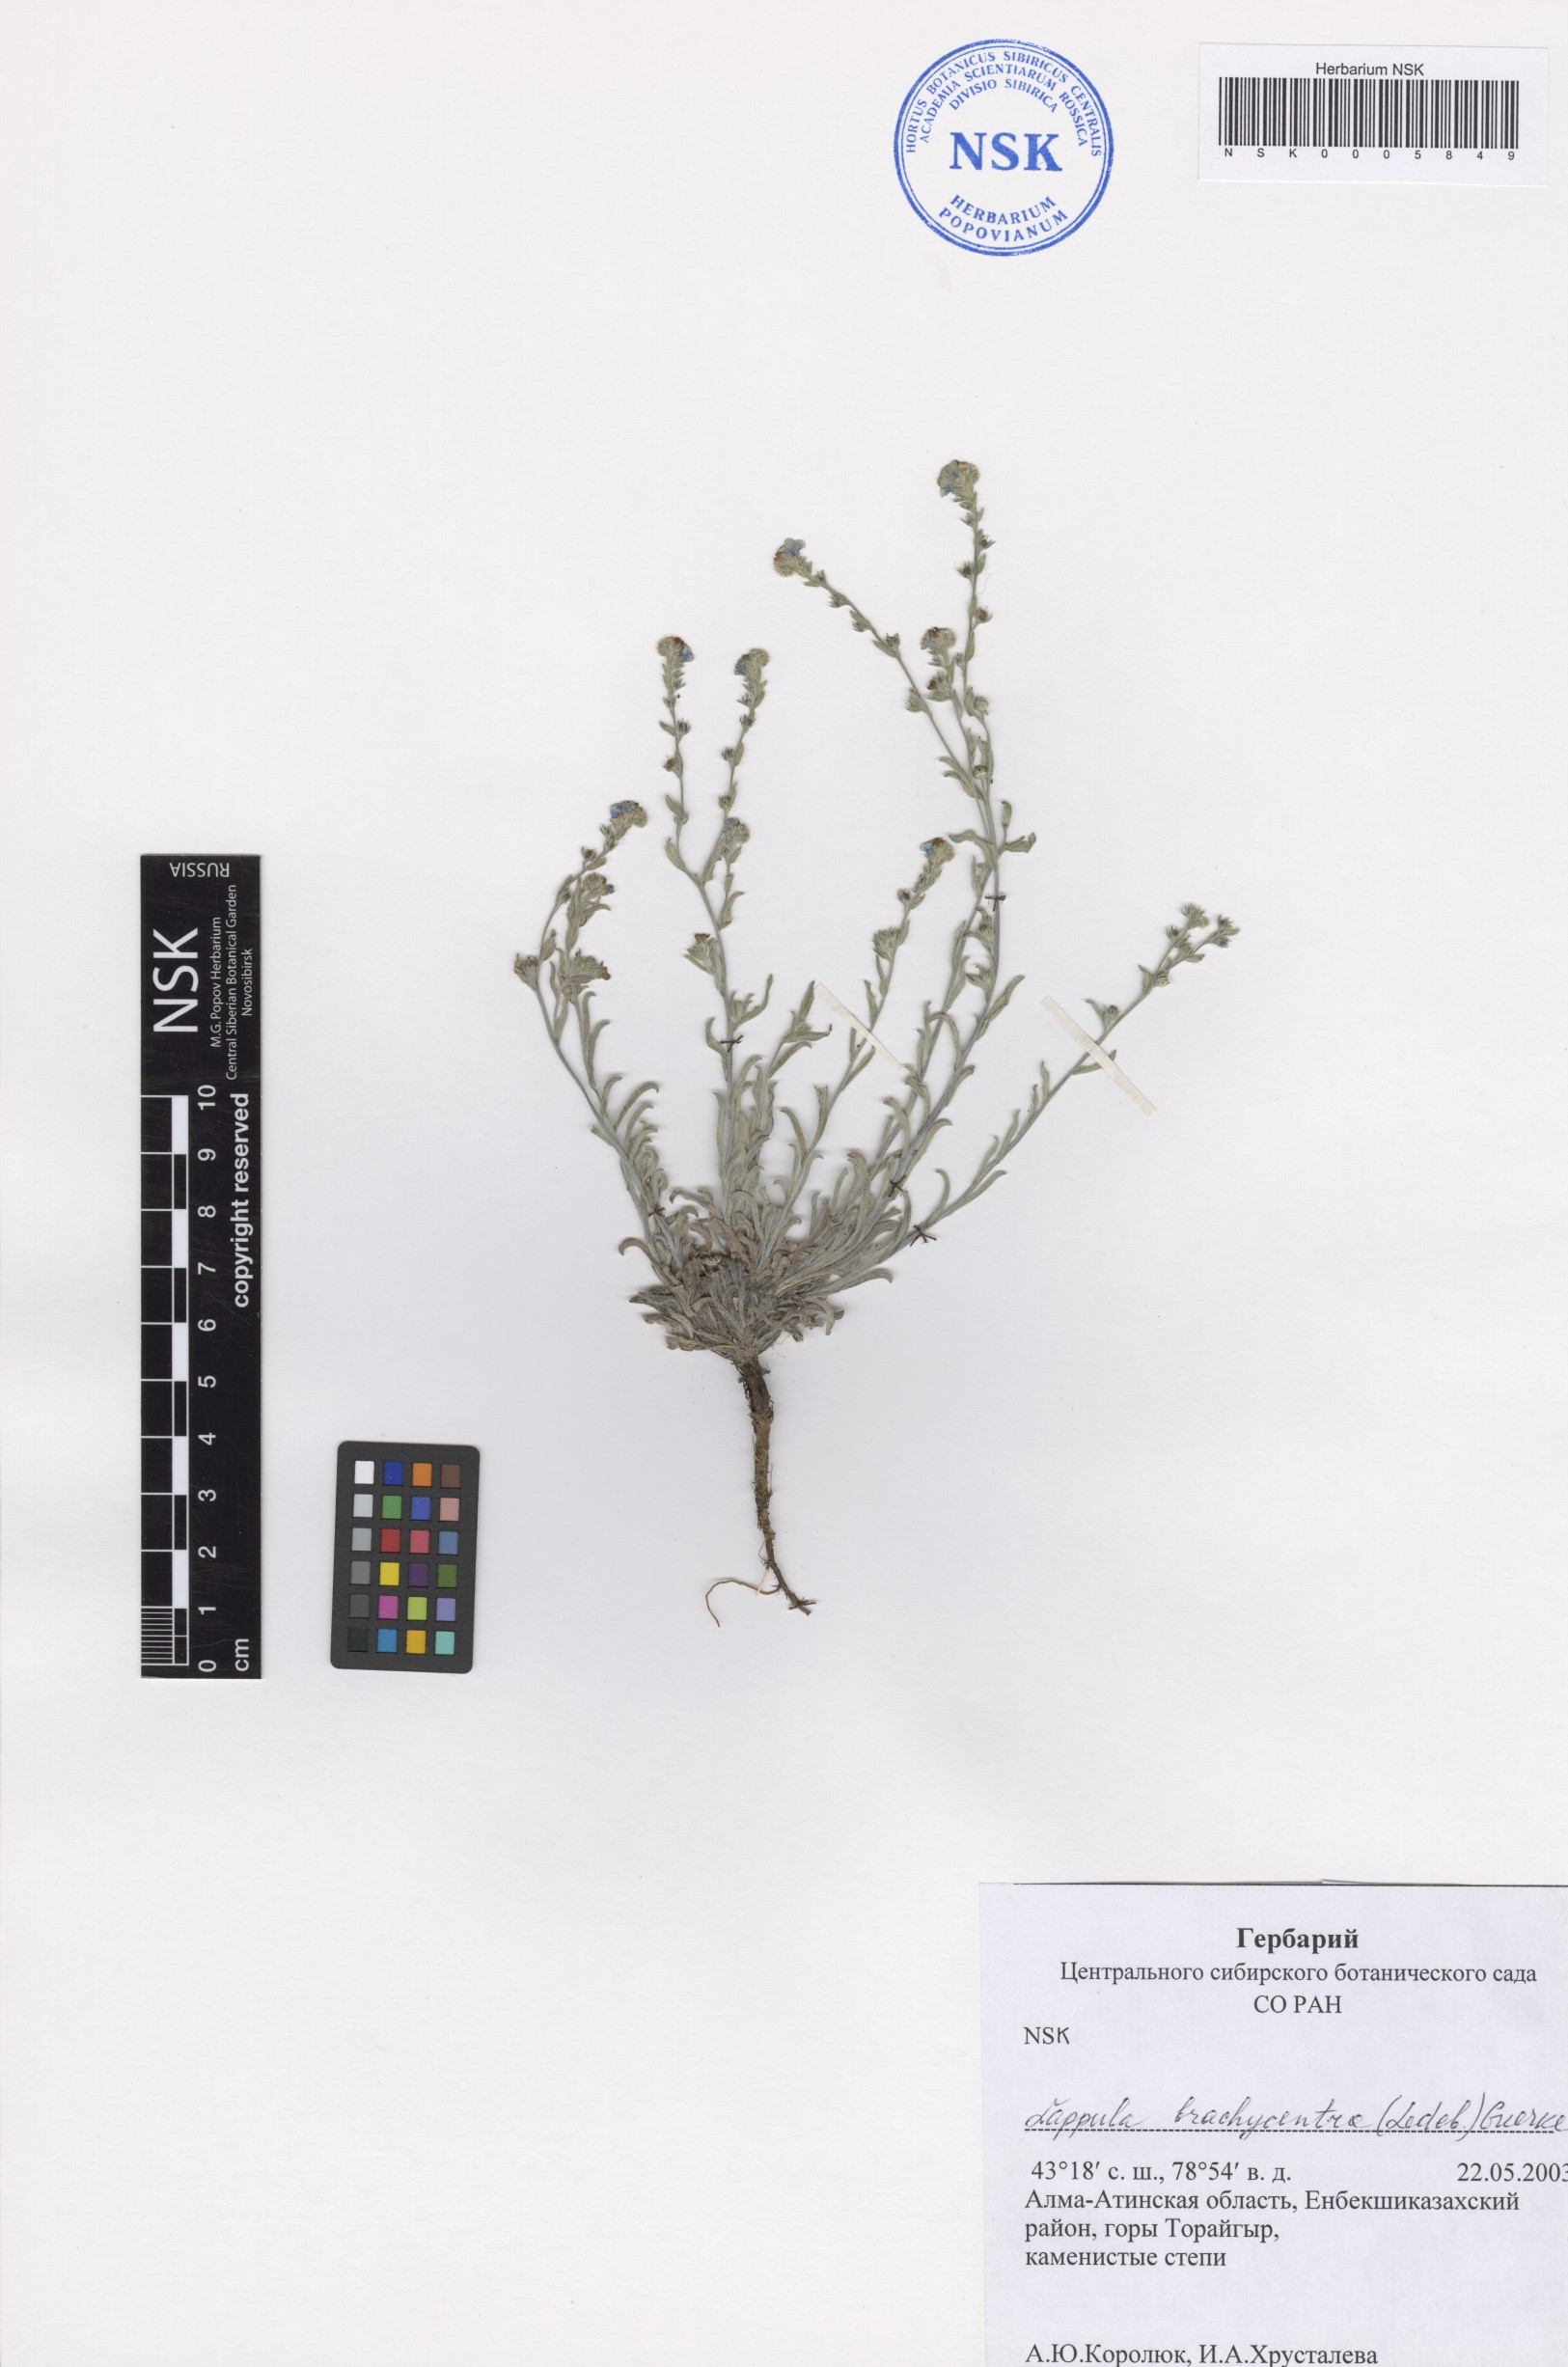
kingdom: Plantae
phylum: Tracheophyta
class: Magnoliopsida
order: Boraginales
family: Boraginaceae
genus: Lappula
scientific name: Lappula brachycentra
